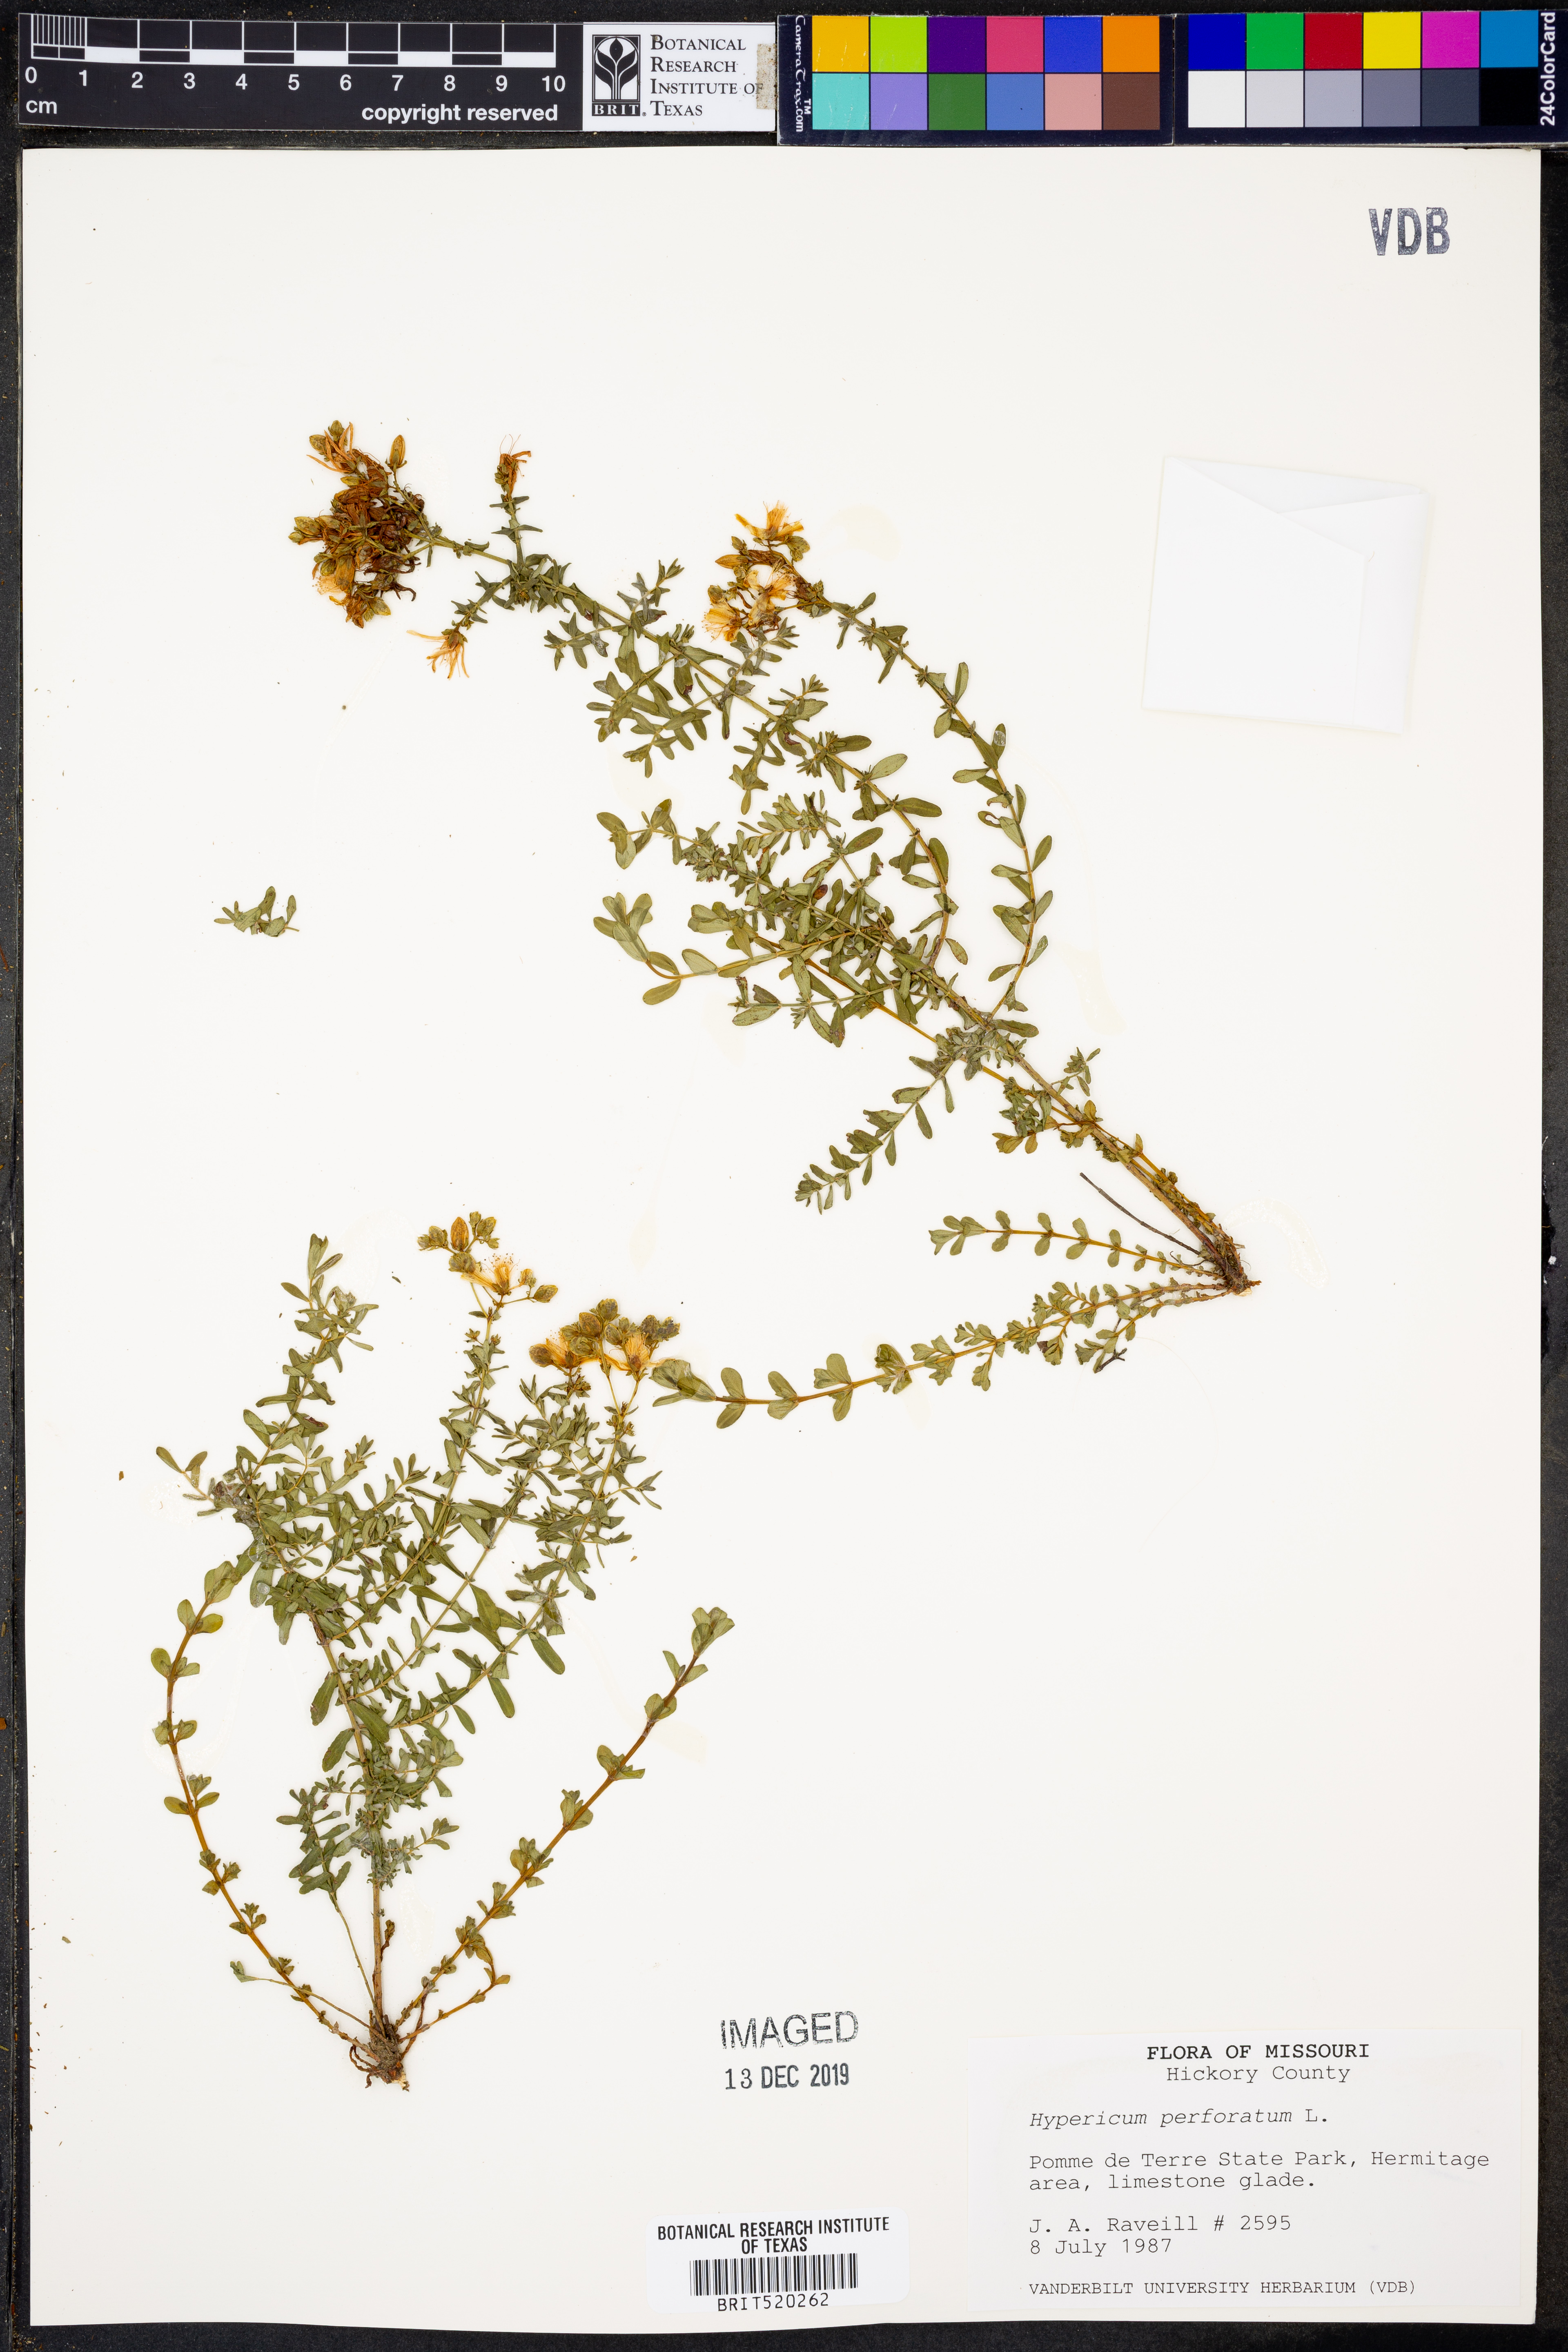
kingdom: Plantae
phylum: Tracheophyta
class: Magnoliopsida
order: Malpighiales
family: Hypericaceae
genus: Hypericum
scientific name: Hypericum perforatum
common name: Common st. johnswort
